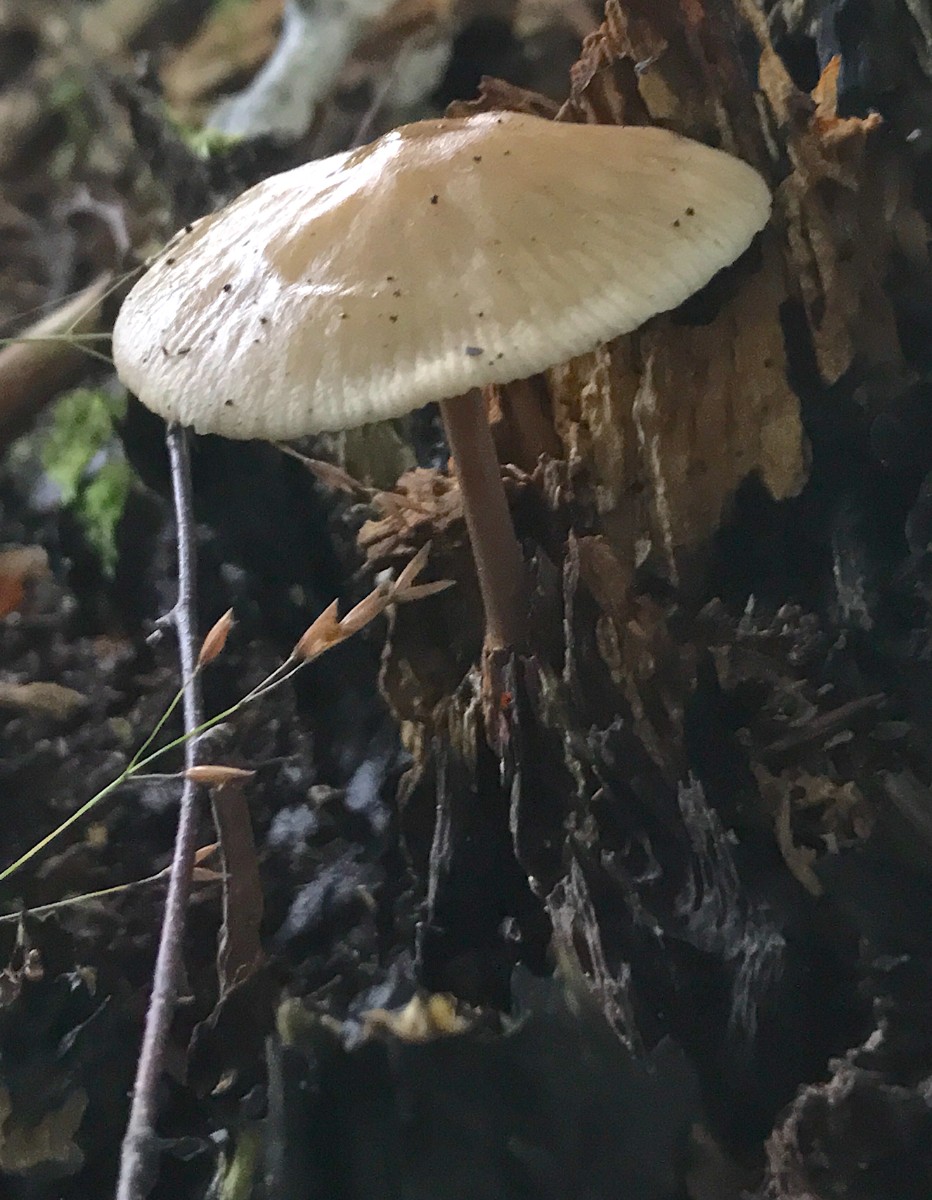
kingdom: Fungi
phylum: Basidiomycota
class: Agaricomycetes
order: Agaricales
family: Physalacriaceae
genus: Hymenopellis
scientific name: Hymenopellis radicata
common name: almindelig pælerodshat
